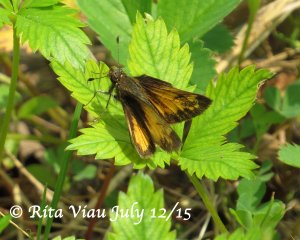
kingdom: Animalia
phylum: Arthropoda
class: Insecta
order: Lepidoptera
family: Hesperiidae
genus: Lon
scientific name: Lon hobomok
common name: Hobomok Skipper
